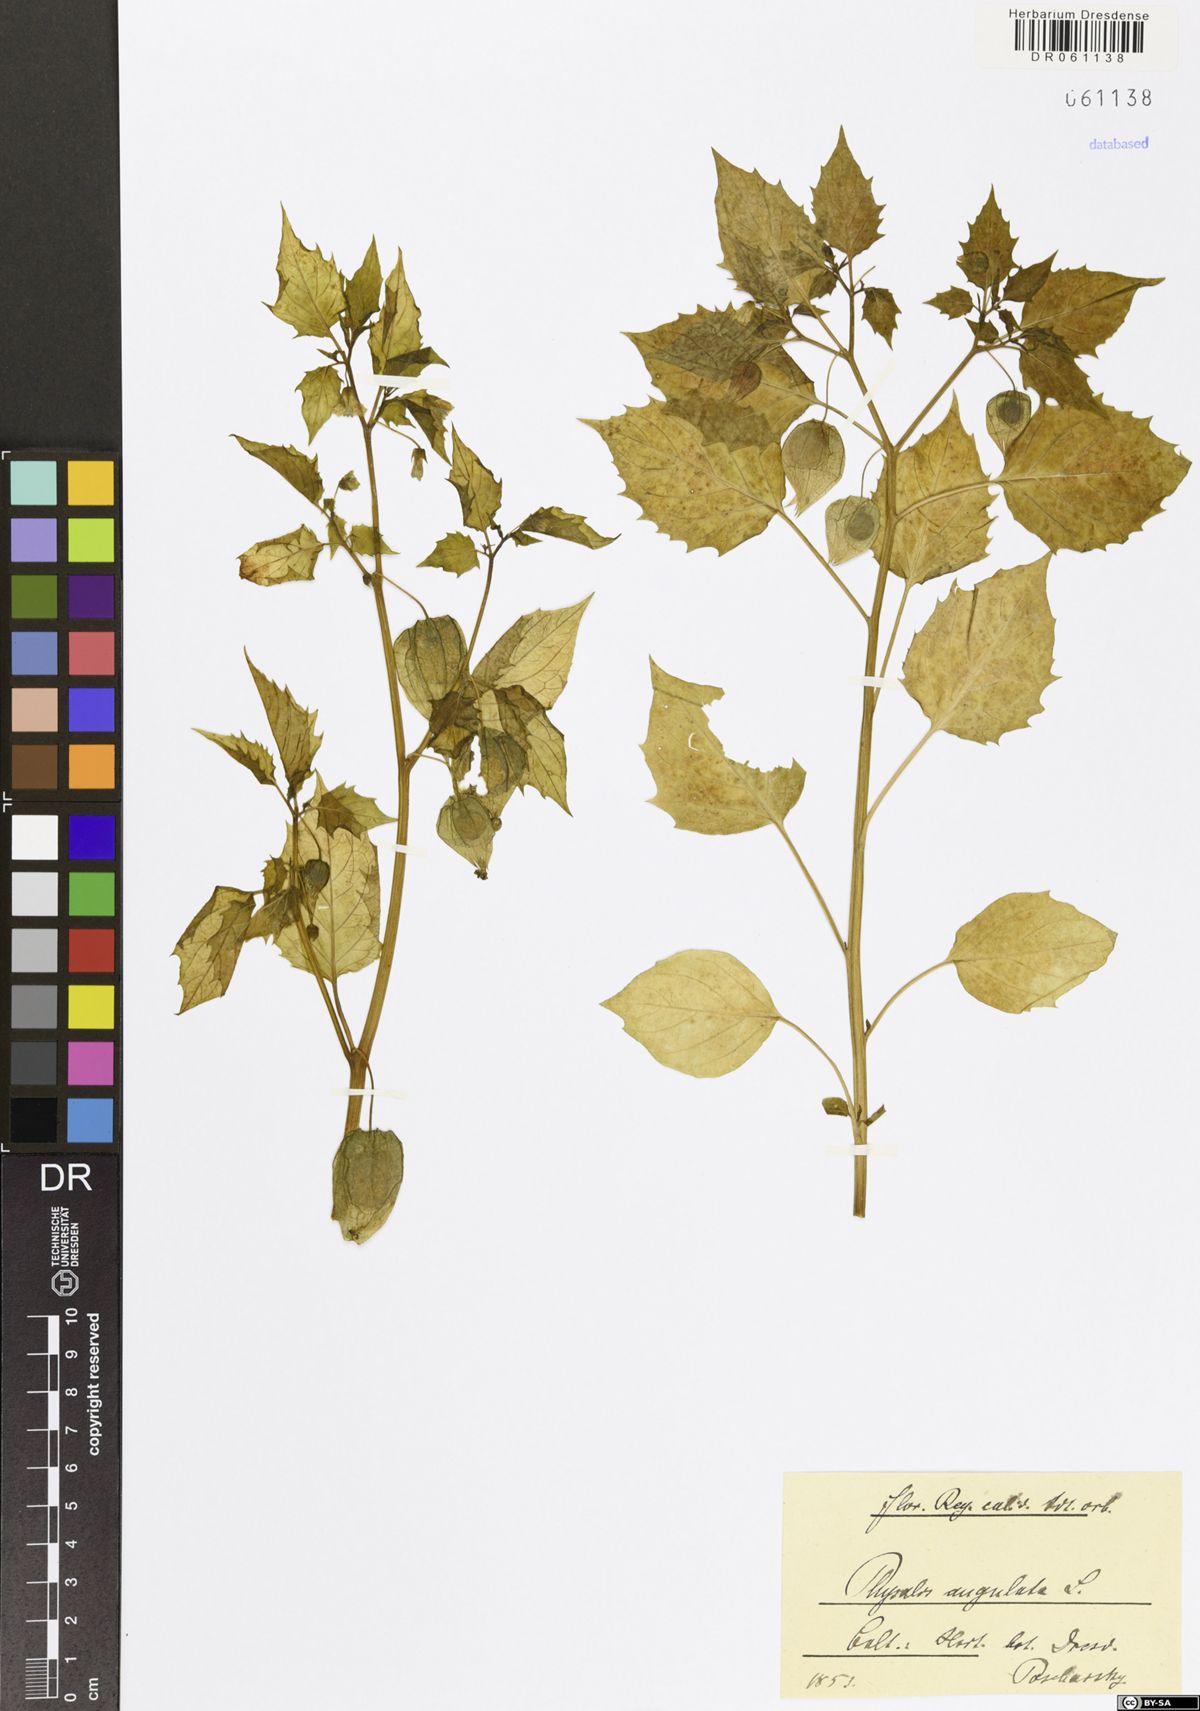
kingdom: Plantae
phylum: Tracheophyta
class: Magnoliopsida
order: Solanales
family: Solanaceae
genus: Physalis
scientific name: Physalis angulata
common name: Angular winter-cherry
